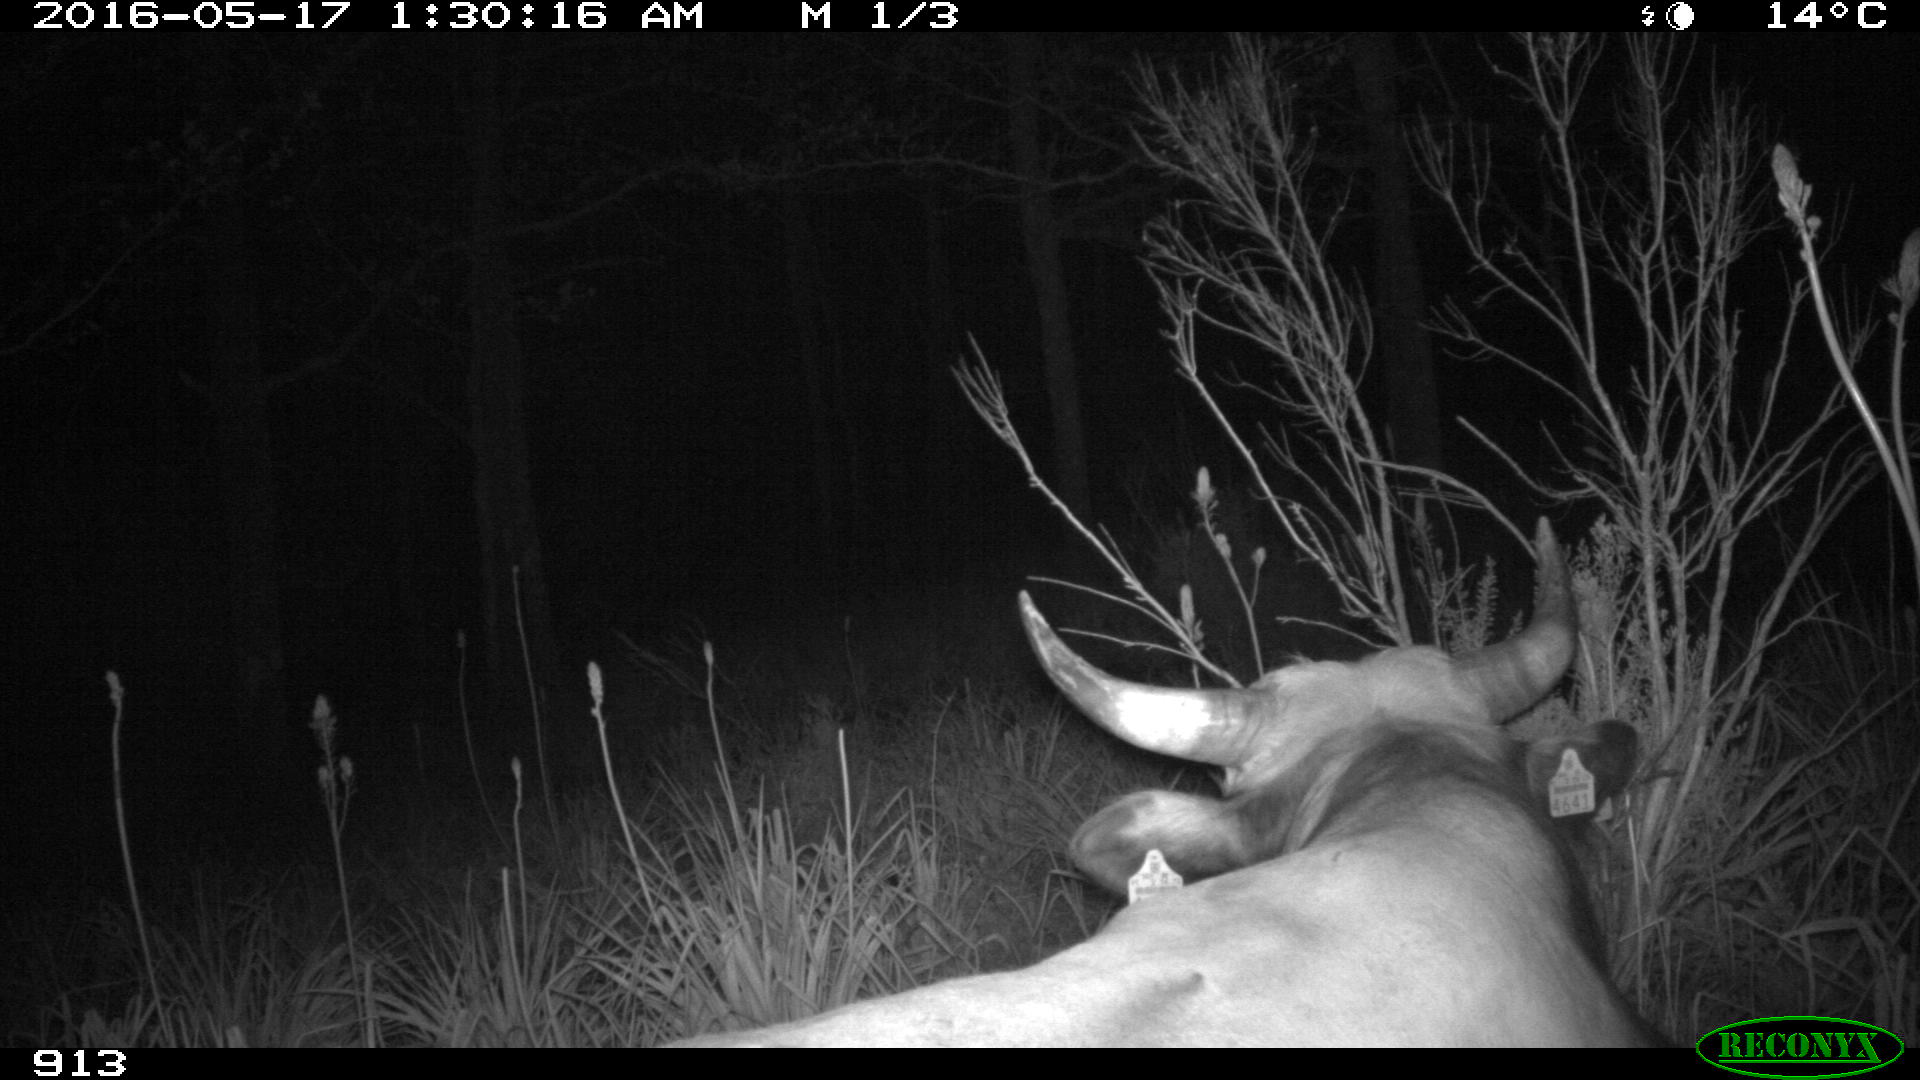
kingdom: Animalia
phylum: Chordata
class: Mammalia
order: Artiodactyla
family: Bovidae
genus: Bos
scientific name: Bos taurus
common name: Domesticated cattle
